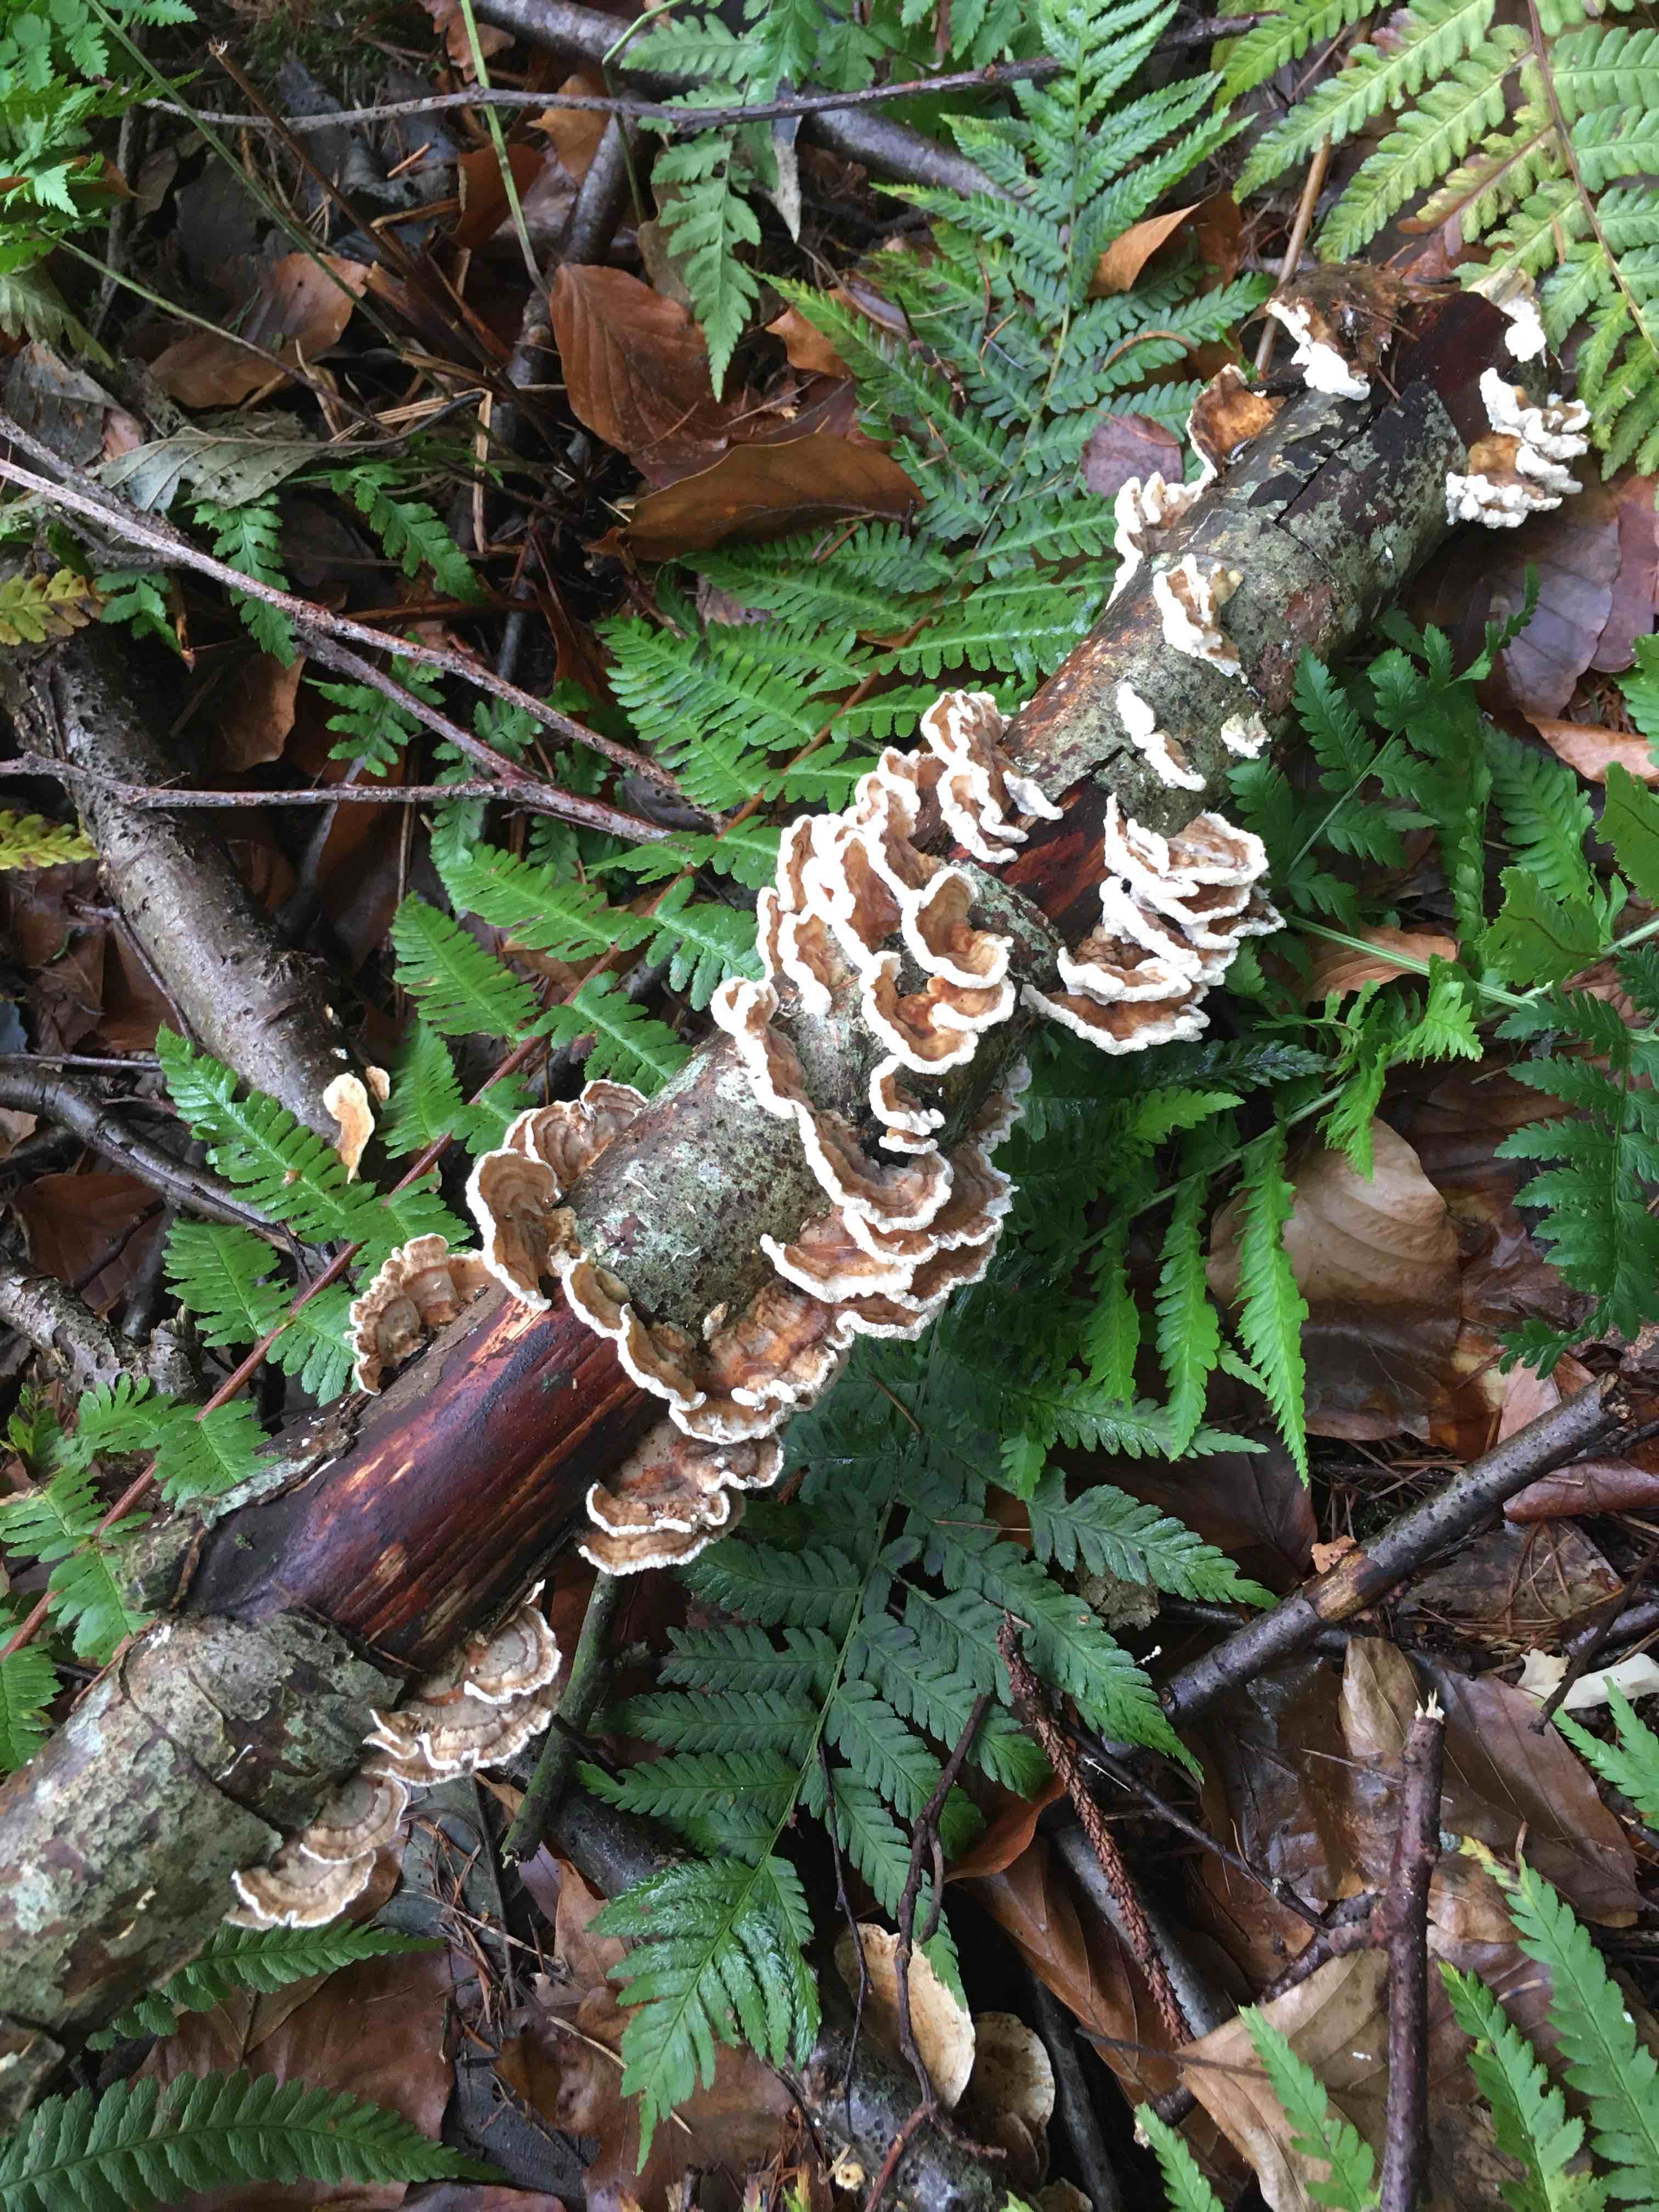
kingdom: Fungi
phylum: Basidiomycota
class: Agaricomycetes
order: Polyporales
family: Polyporaceae
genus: Trametes
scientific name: Trametes
